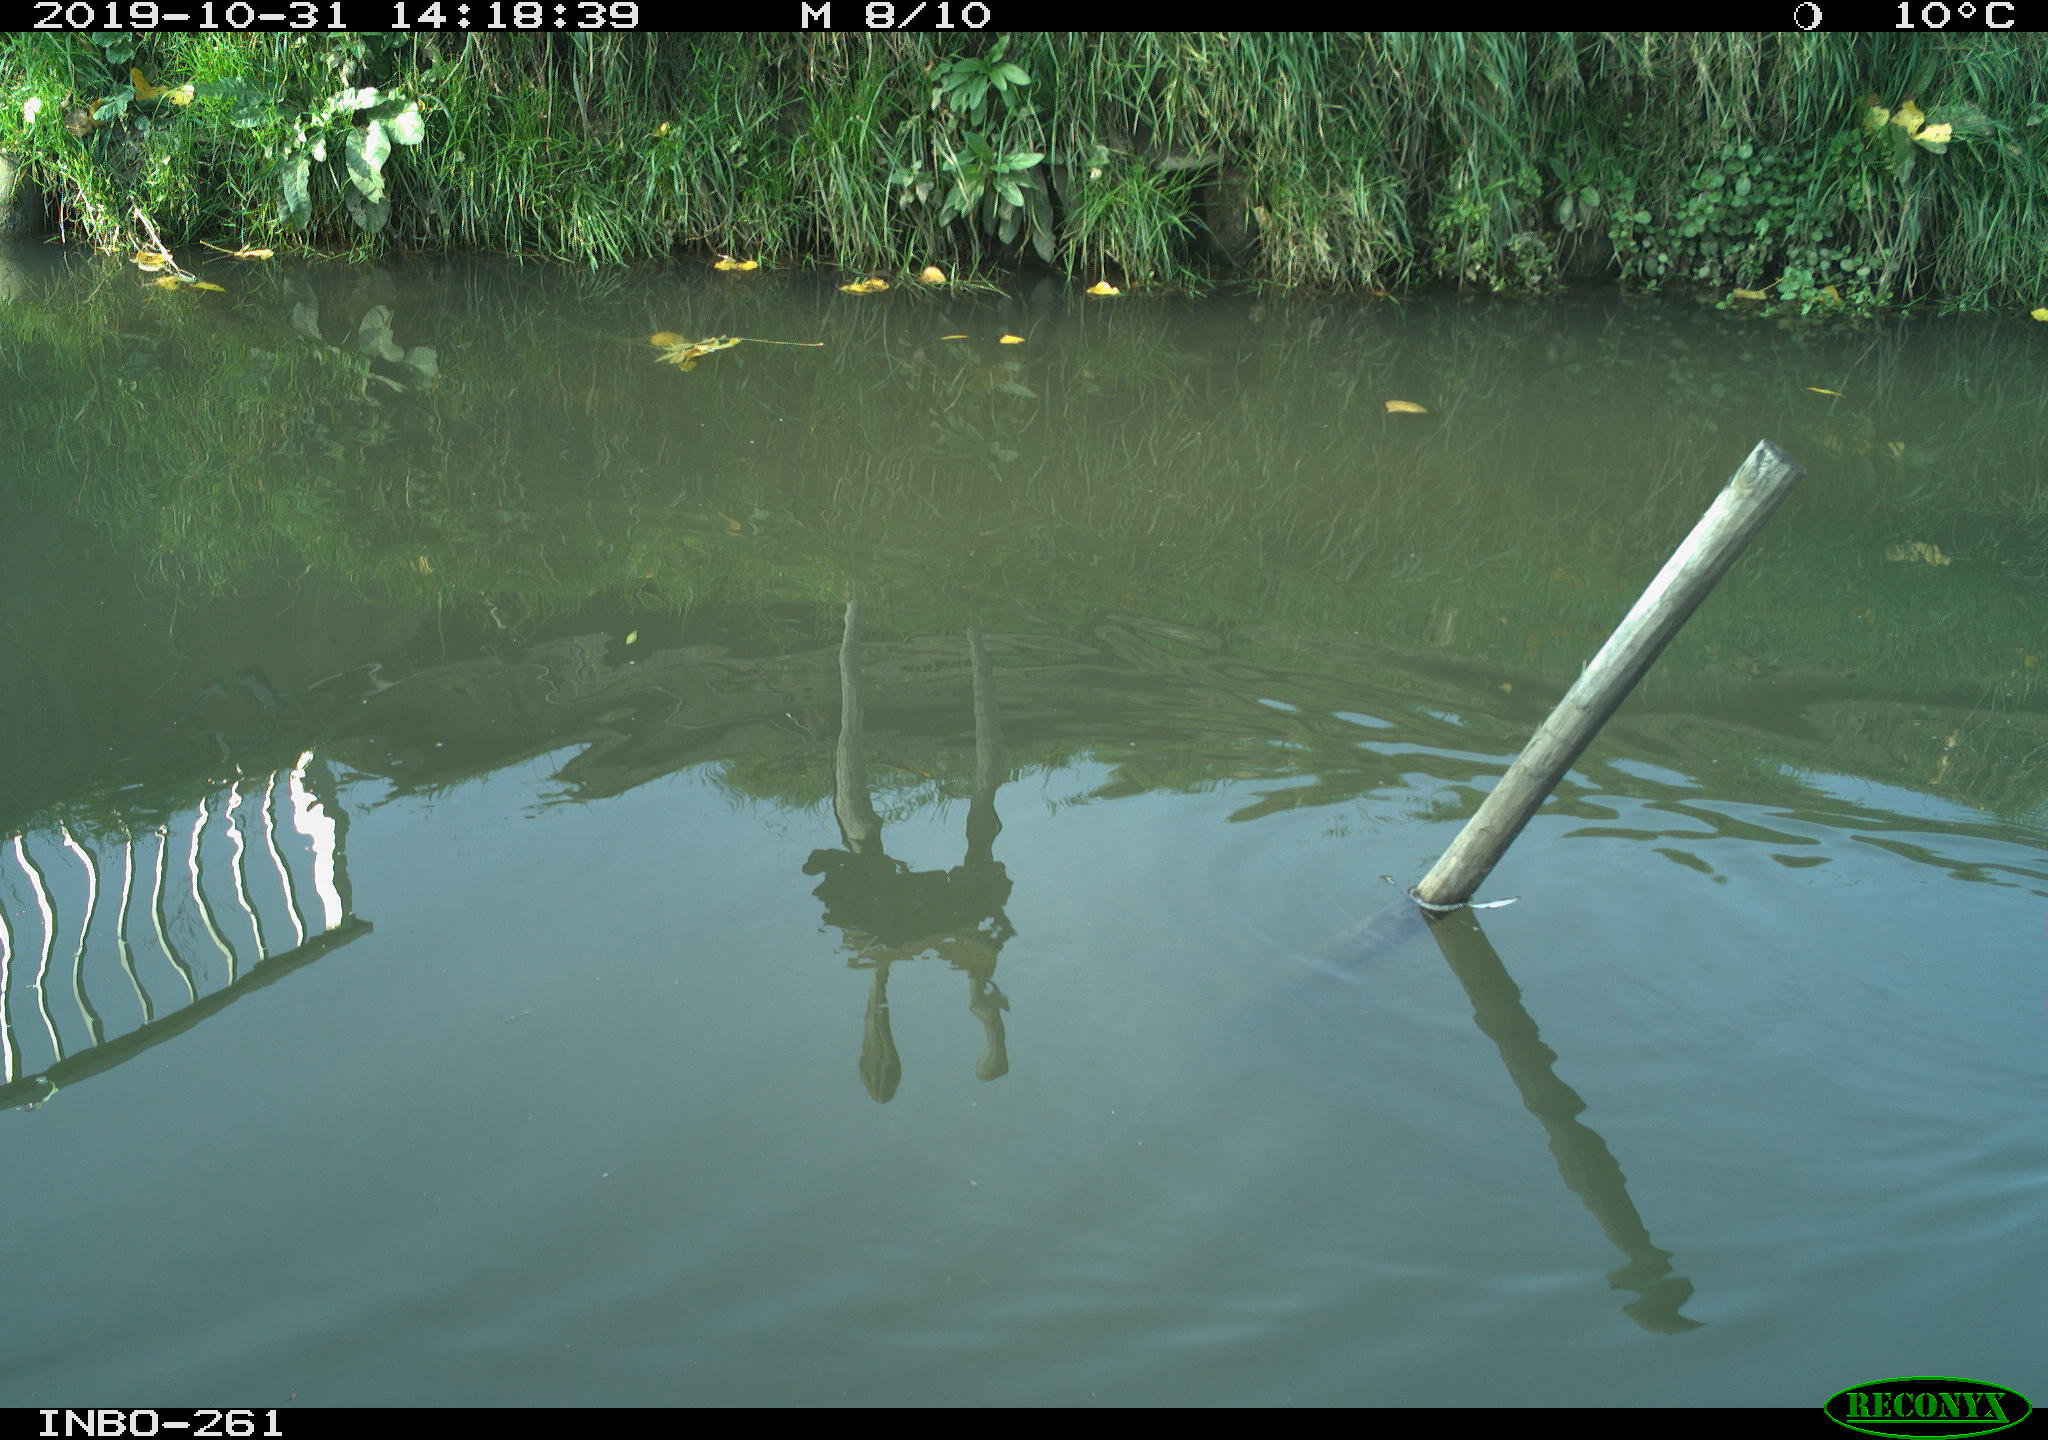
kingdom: Animalia
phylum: Chordata
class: Aves
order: Gruiformes
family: Rallidae
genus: Gallinula
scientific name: Gallinula chloropus
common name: Common moorhen
